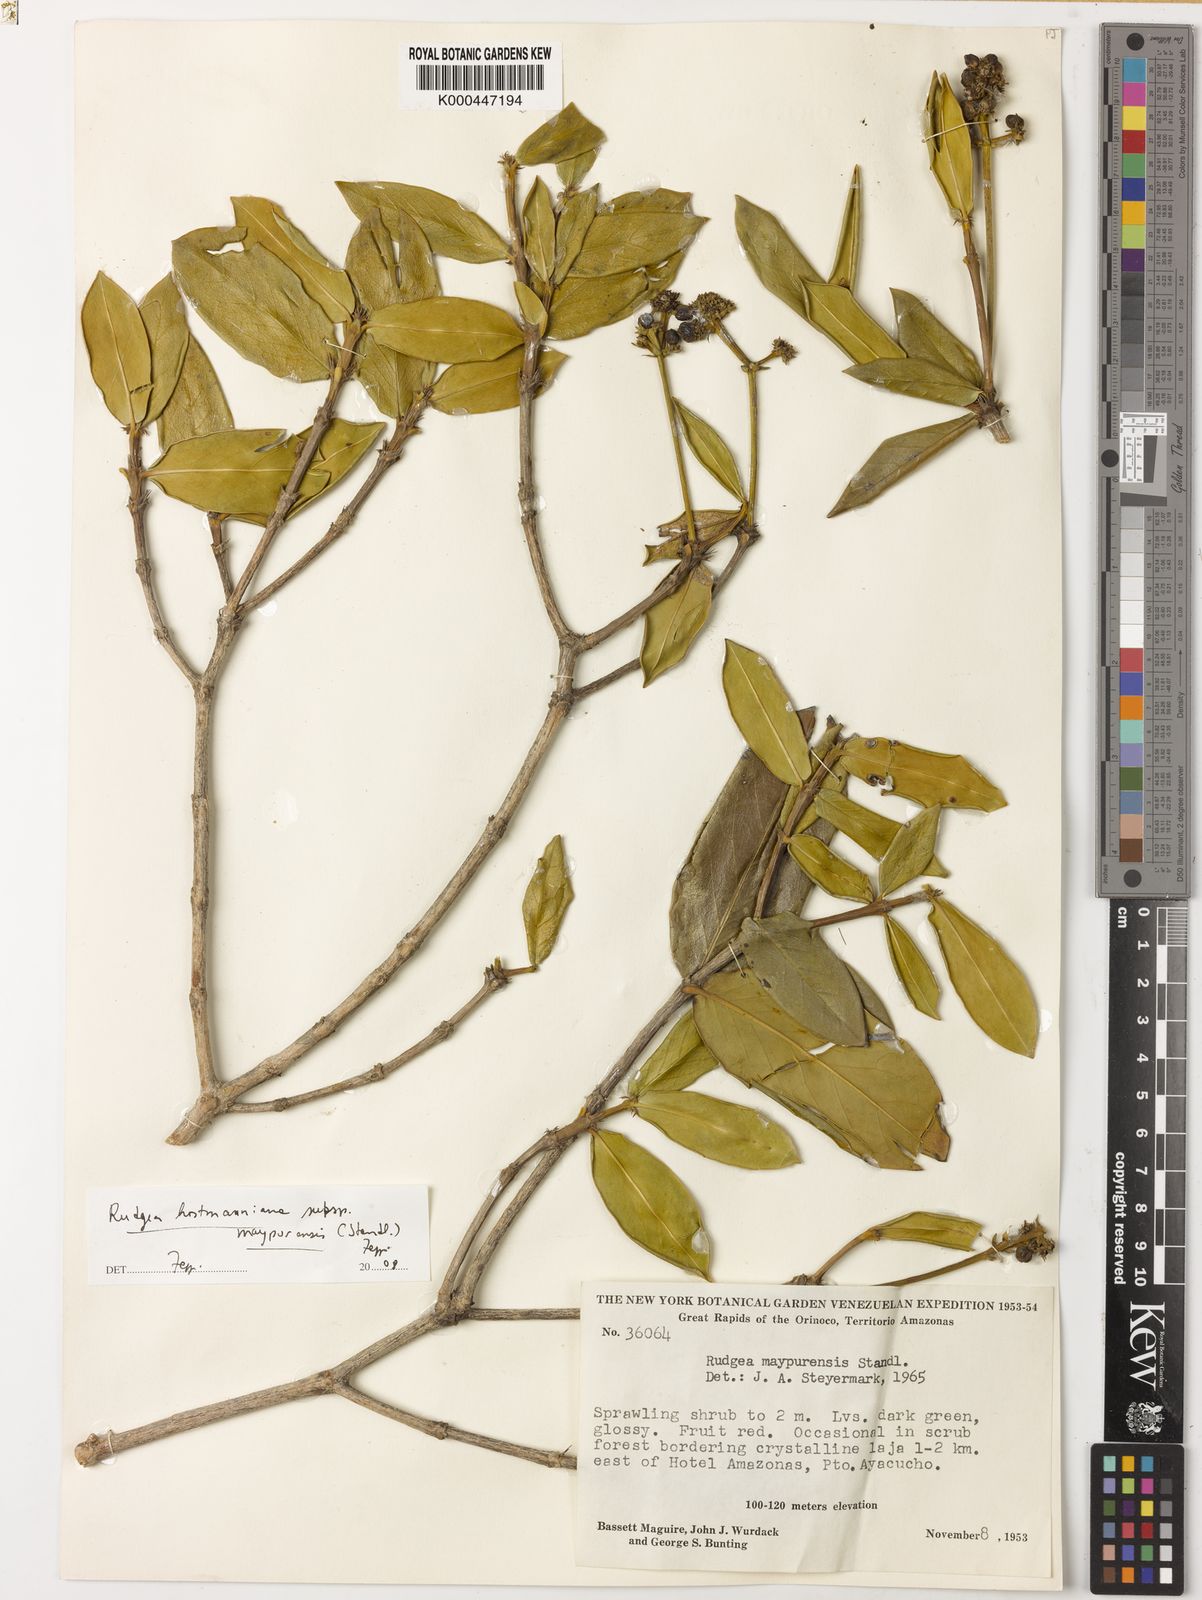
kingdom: Plantae
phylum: Tracheophyta
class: Magnoliopsida
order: Gentianales
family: Rubiaceae
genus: Rudgea
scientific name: Rudgea hostmanniana
